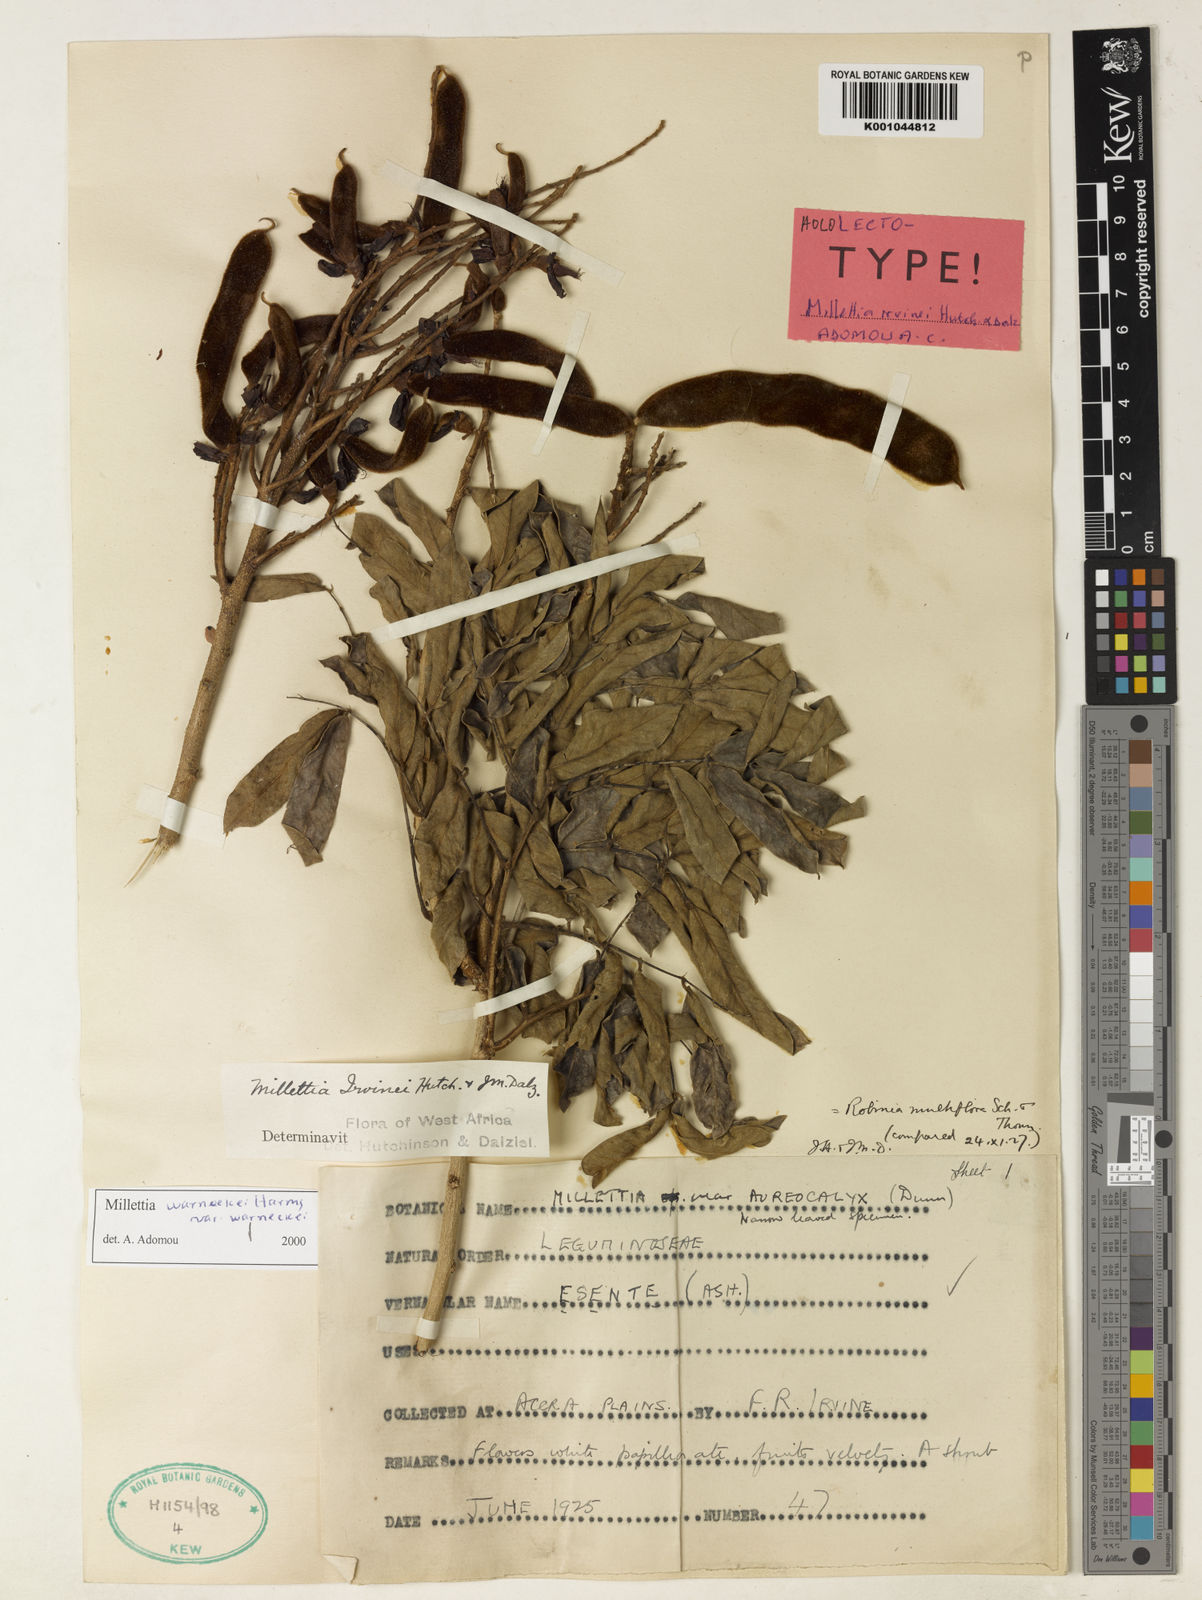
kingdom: Plantae
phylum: Tracheophyta
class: Magnoliopsida
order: Fabales
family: Fabaceae
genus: Millettia
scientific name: Millettia warneckei
